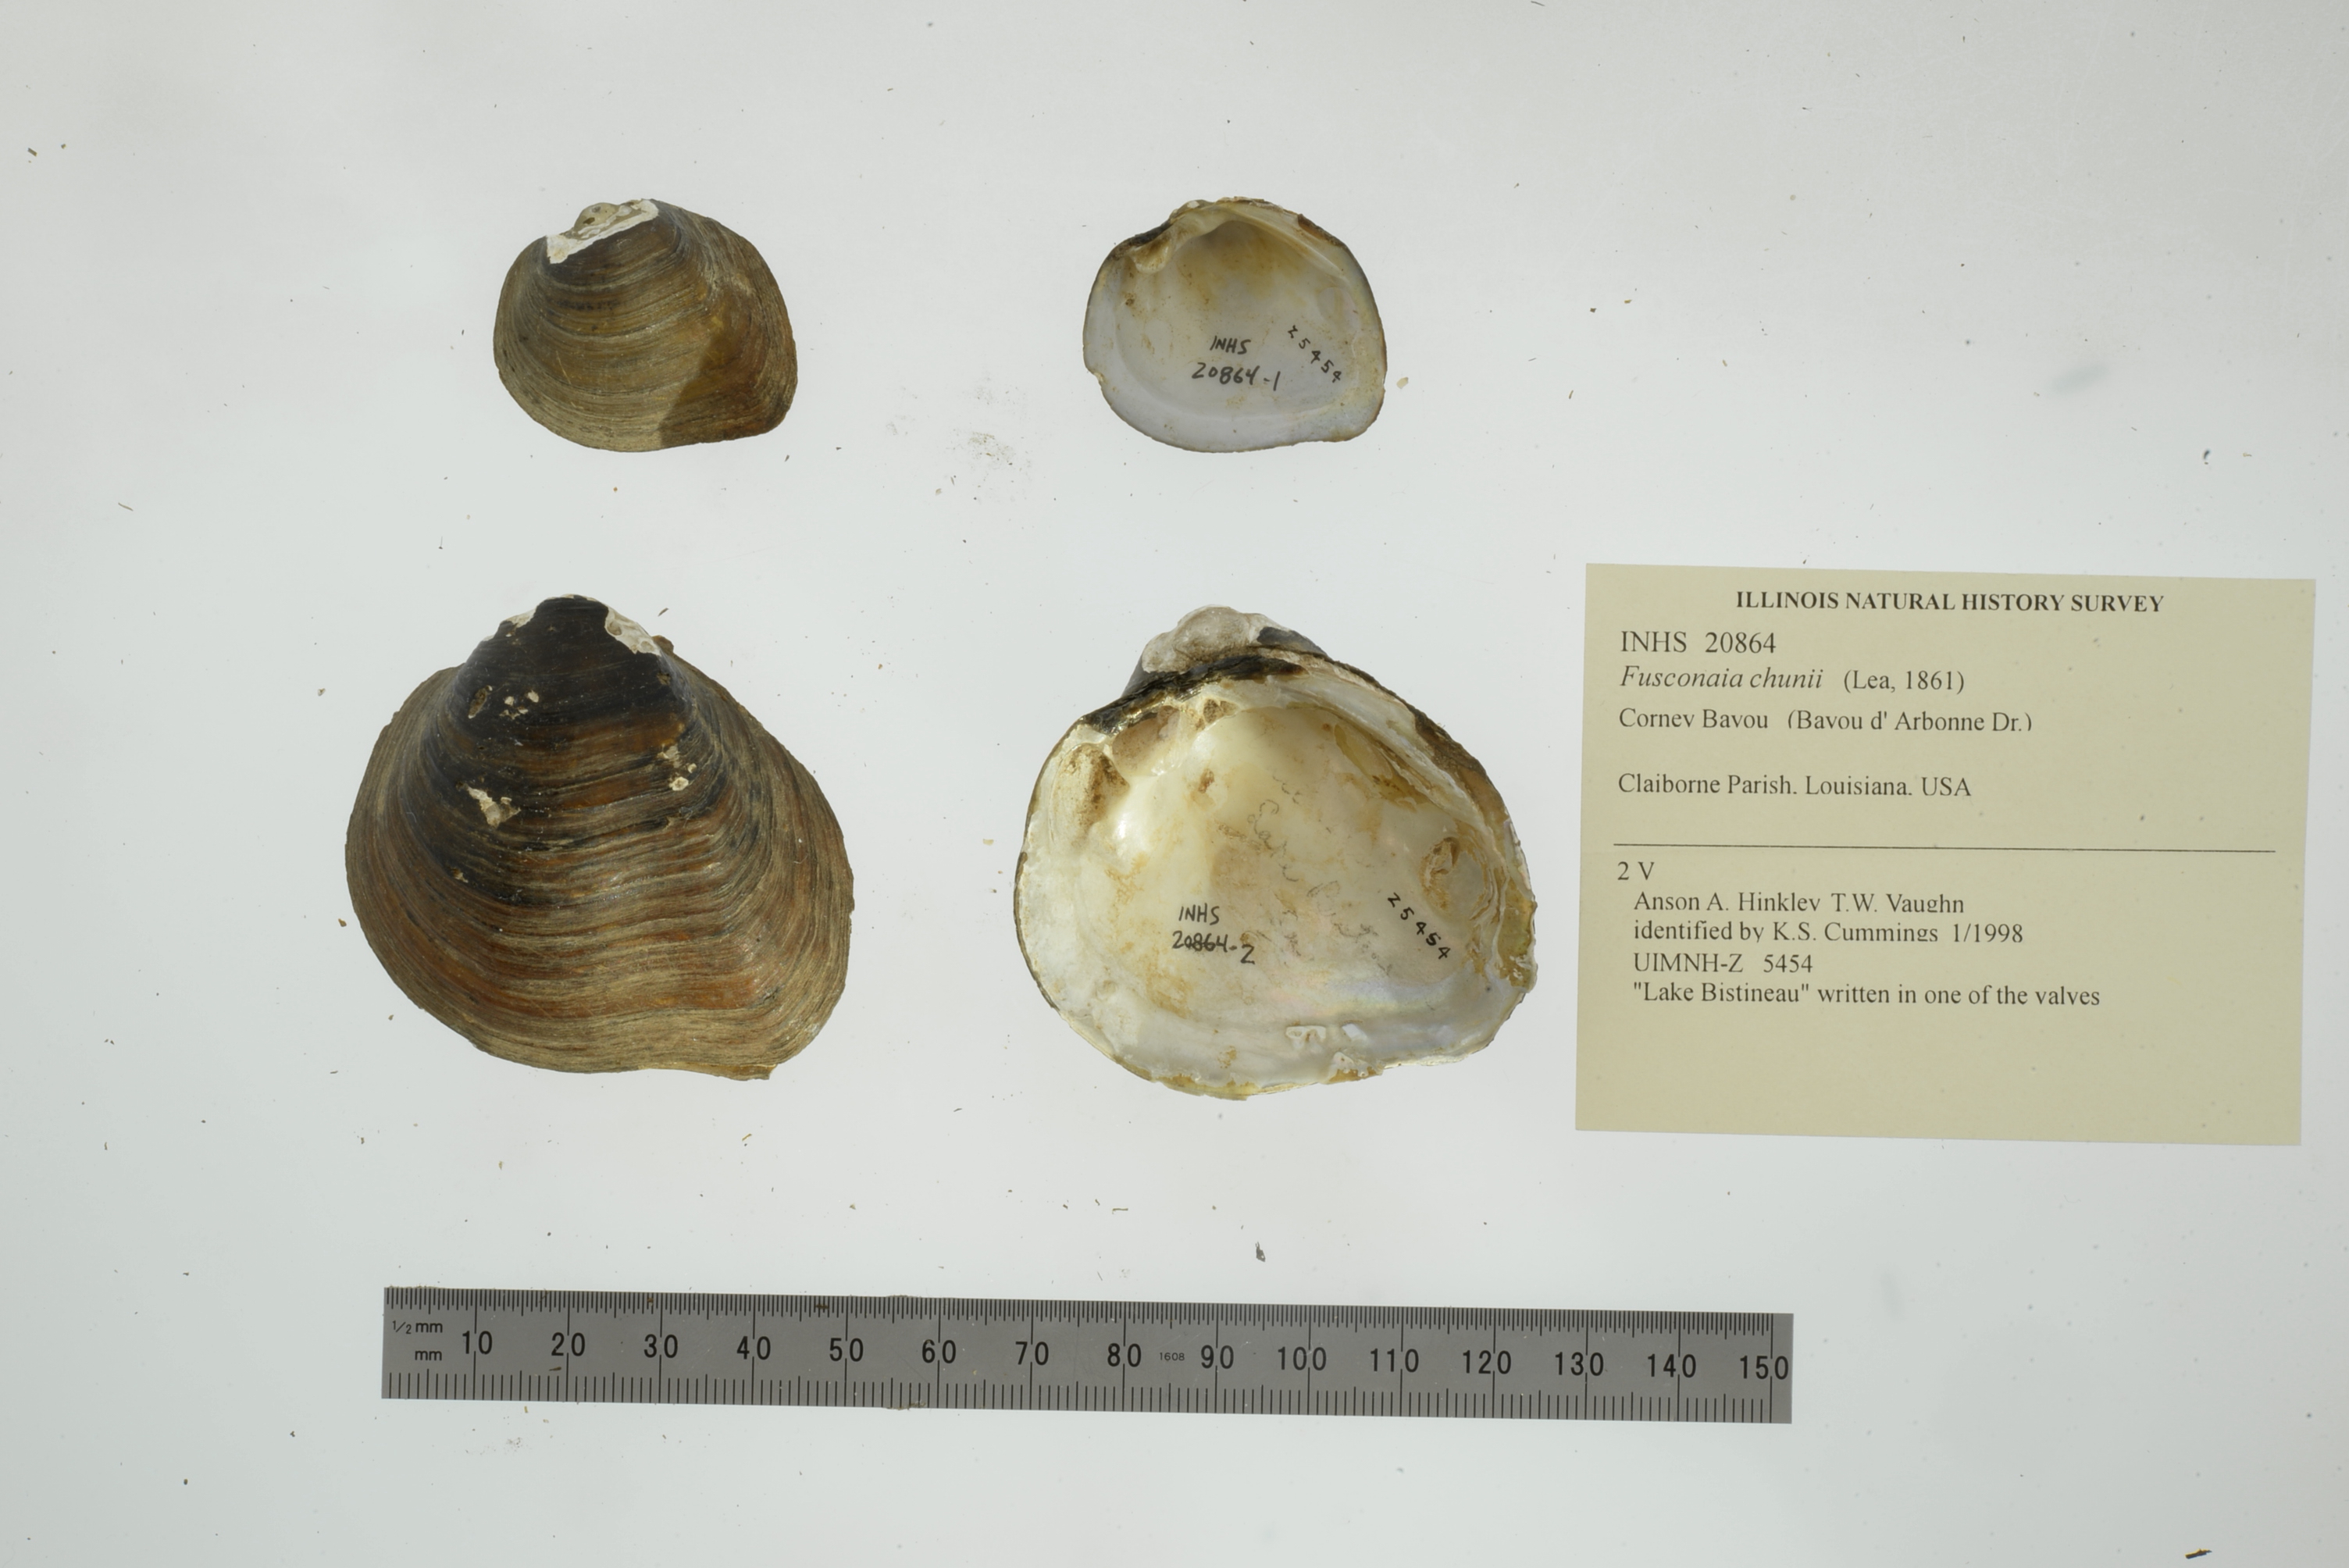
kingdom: Animalia
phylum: Mollusca
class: Bivalvia
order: Unionida
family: Unionidae
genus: Fusconaia
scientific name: Fusconaia chunii
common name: Texas pigtoe
